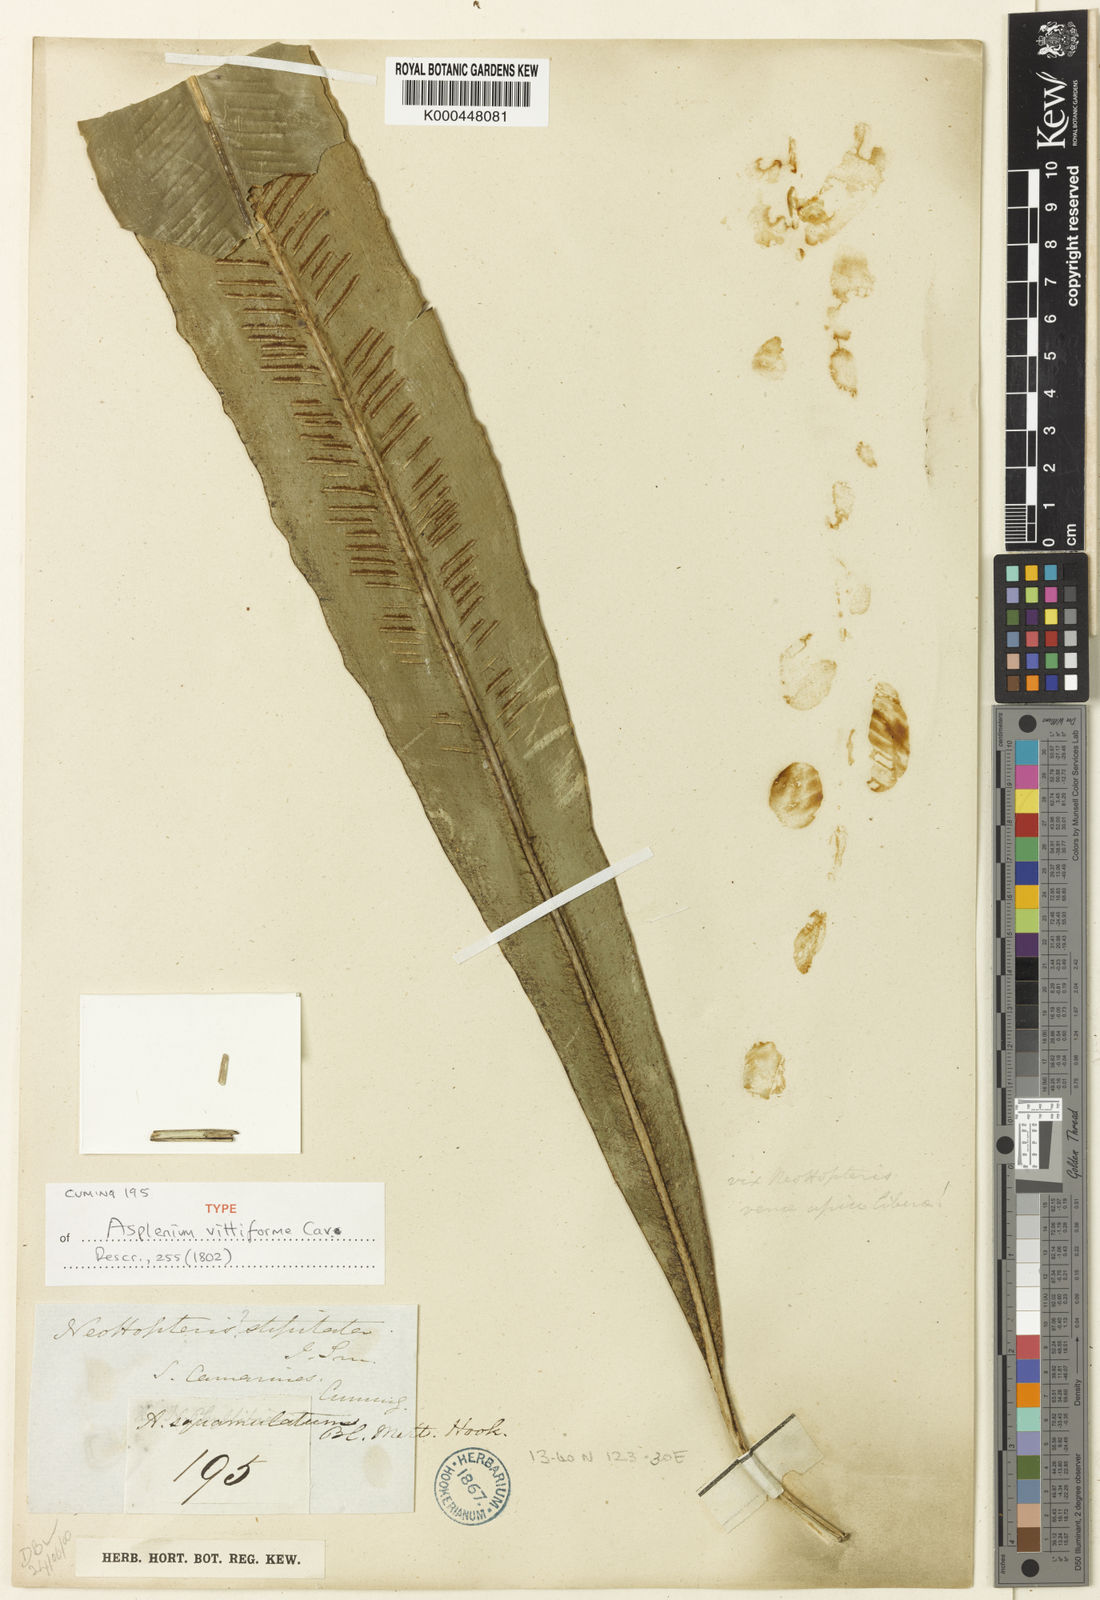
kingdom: Plantae
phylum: Tracheophyta
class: Polypodiopsida
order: Polypodiales
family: Aspleniaceae
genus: Asplenium
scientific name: Asplenium vittaeforme
